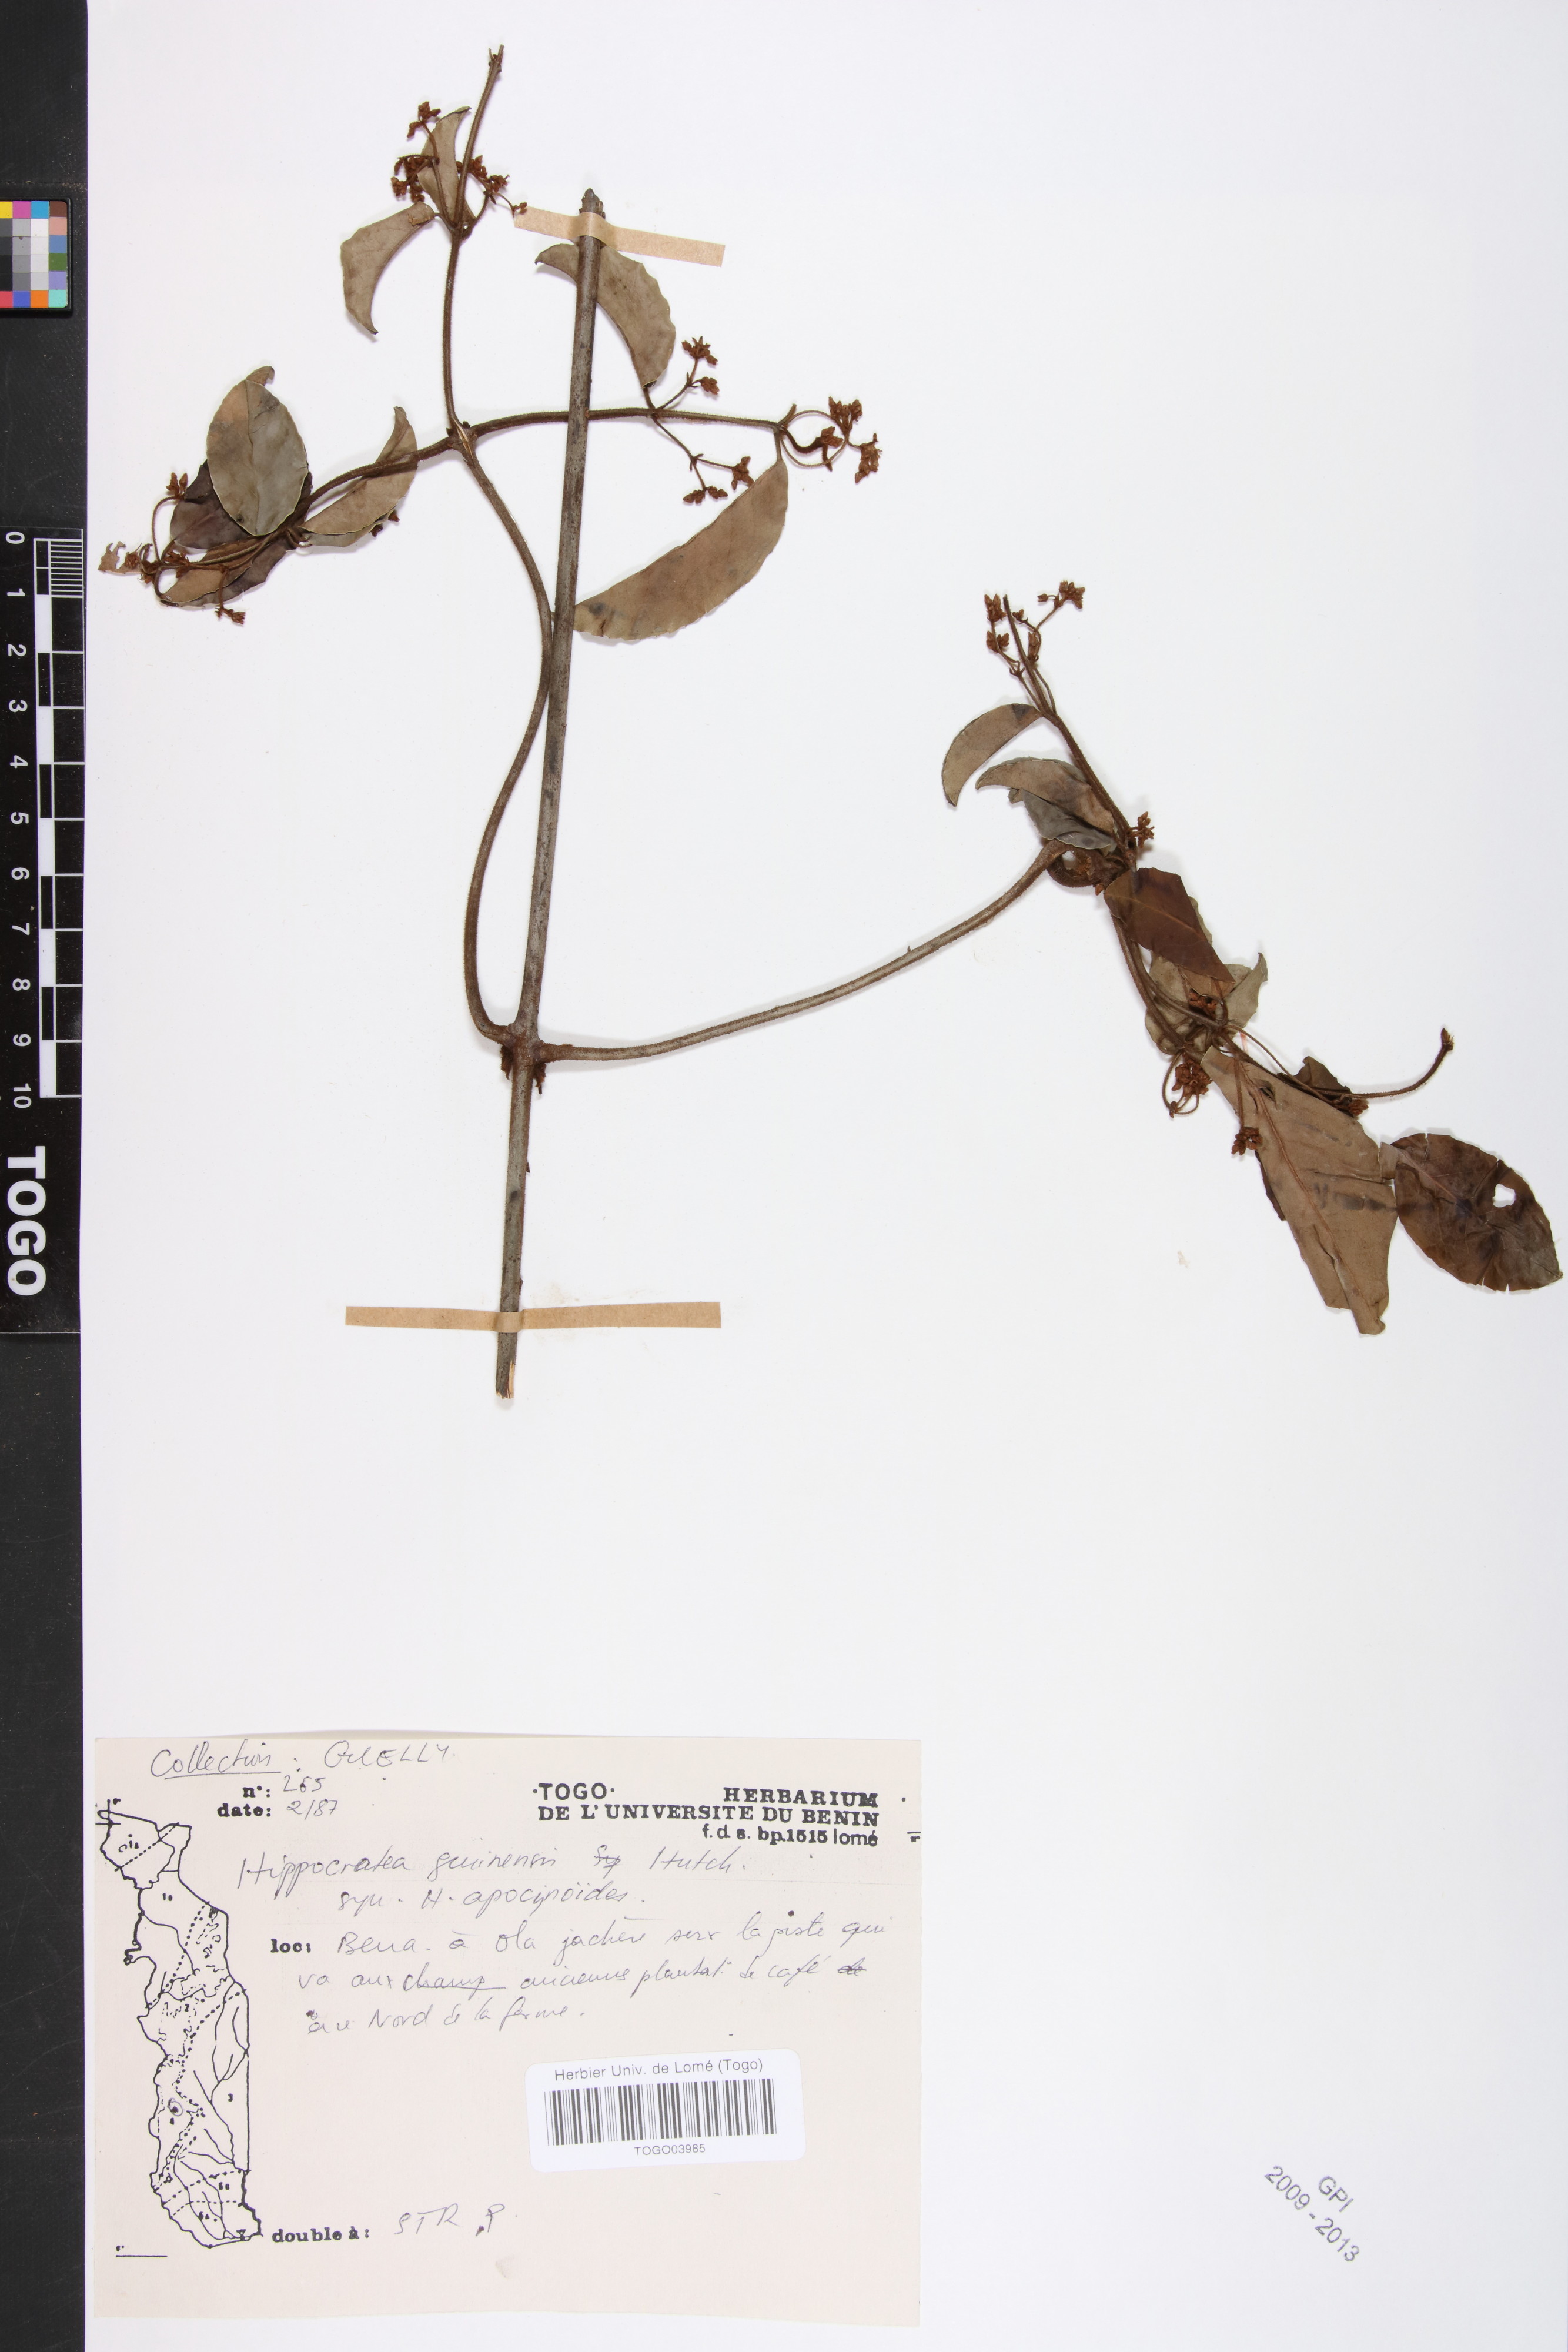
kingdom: Plantae
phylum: Tracheophyta
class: Magnoliopsida
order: Celastrales
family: Celastraceae
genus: Loeseneriella
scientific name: Loeseneriella apocynoides
